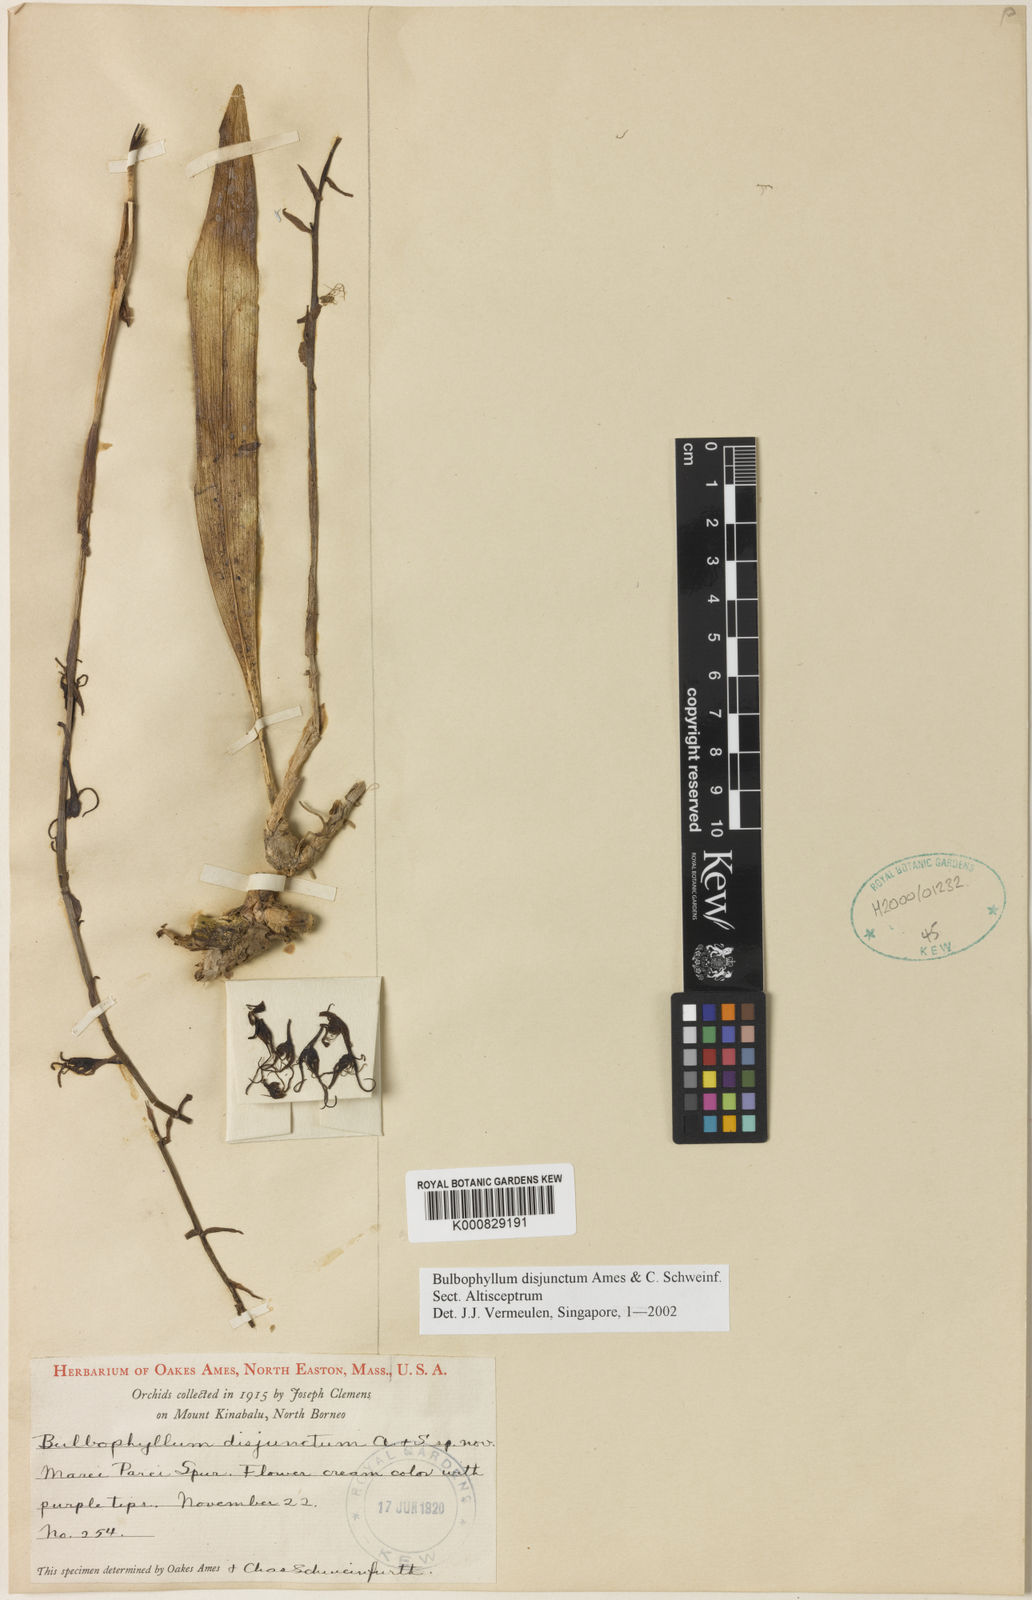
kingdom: Plantae
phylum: Tracheophyta
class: Liliopsida
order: Asparagales
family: Orchidaceae
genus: Bulbophyllum
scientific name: Bulbophyllum disjunctum
